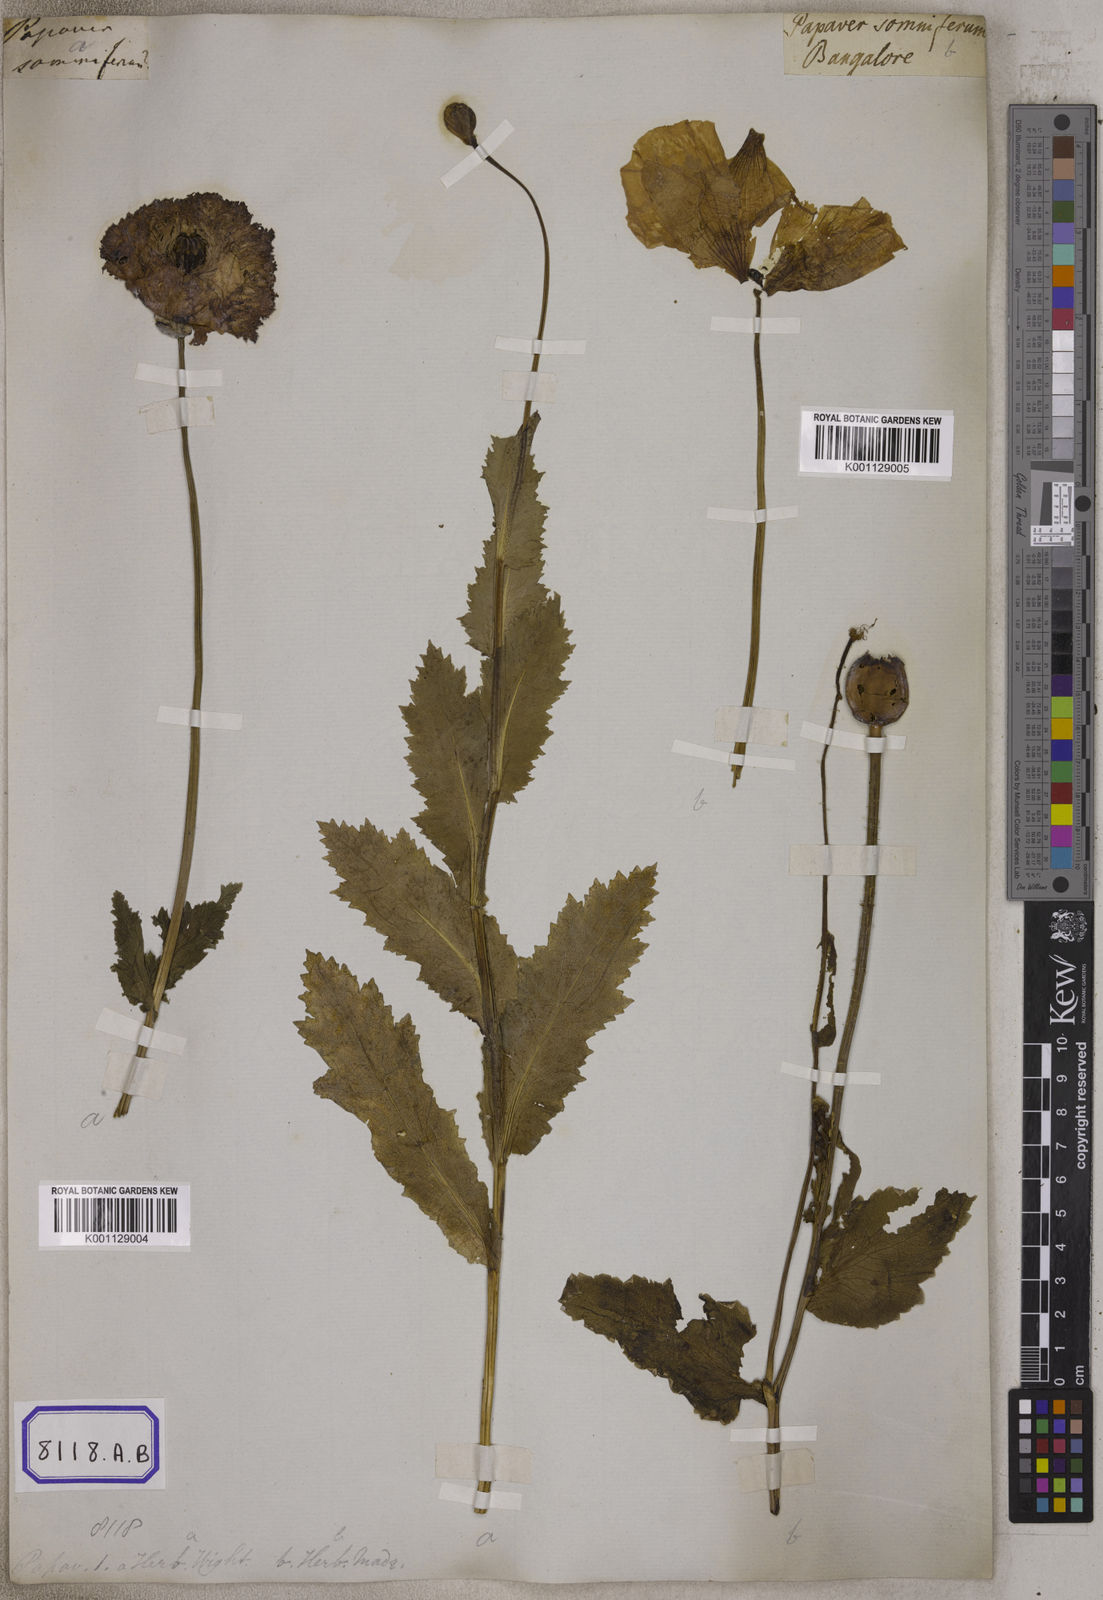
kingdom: Plantae
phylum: Tracheophyta
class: Magnoliopsida
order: Ranunculales
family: Papaveraceae
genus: Papaver
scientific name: Papaver somniferum
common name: Opium poppy
